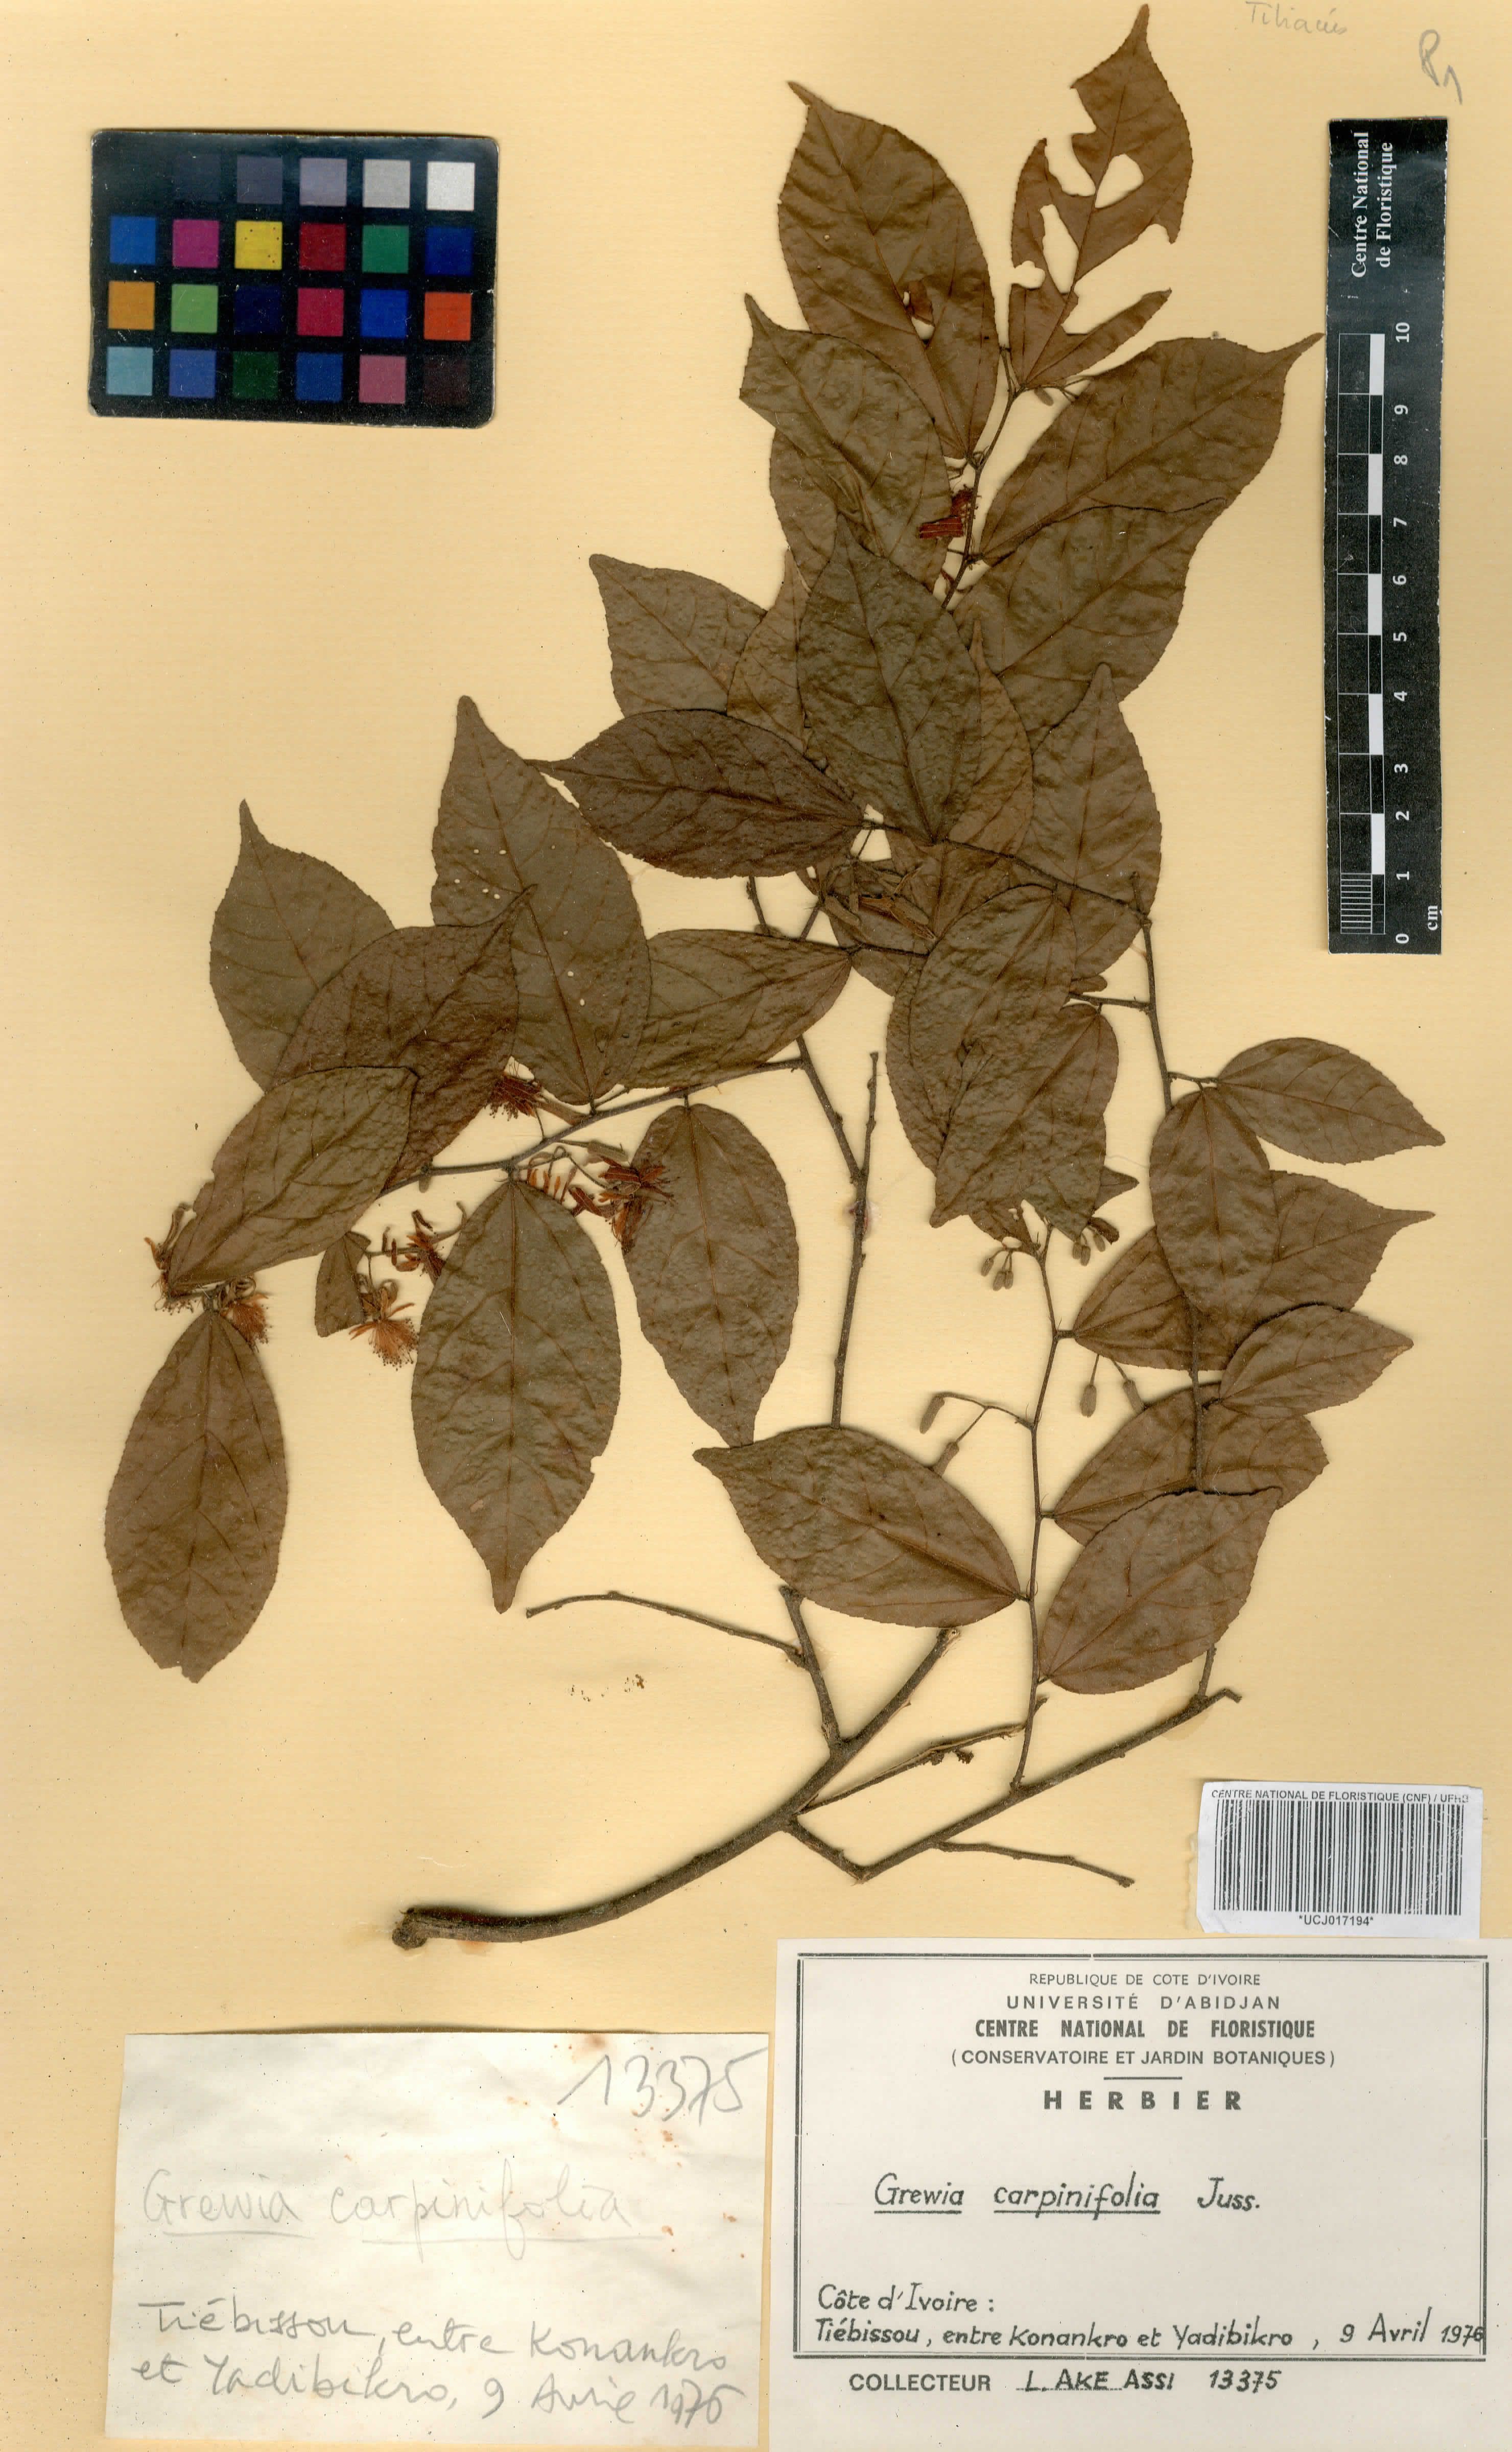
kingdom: Plantae
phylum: Tracheophyta
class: Magnoliopsida
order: Malvales
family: Malvaceae
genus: Grewia
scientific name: Grewia carpinifolia
